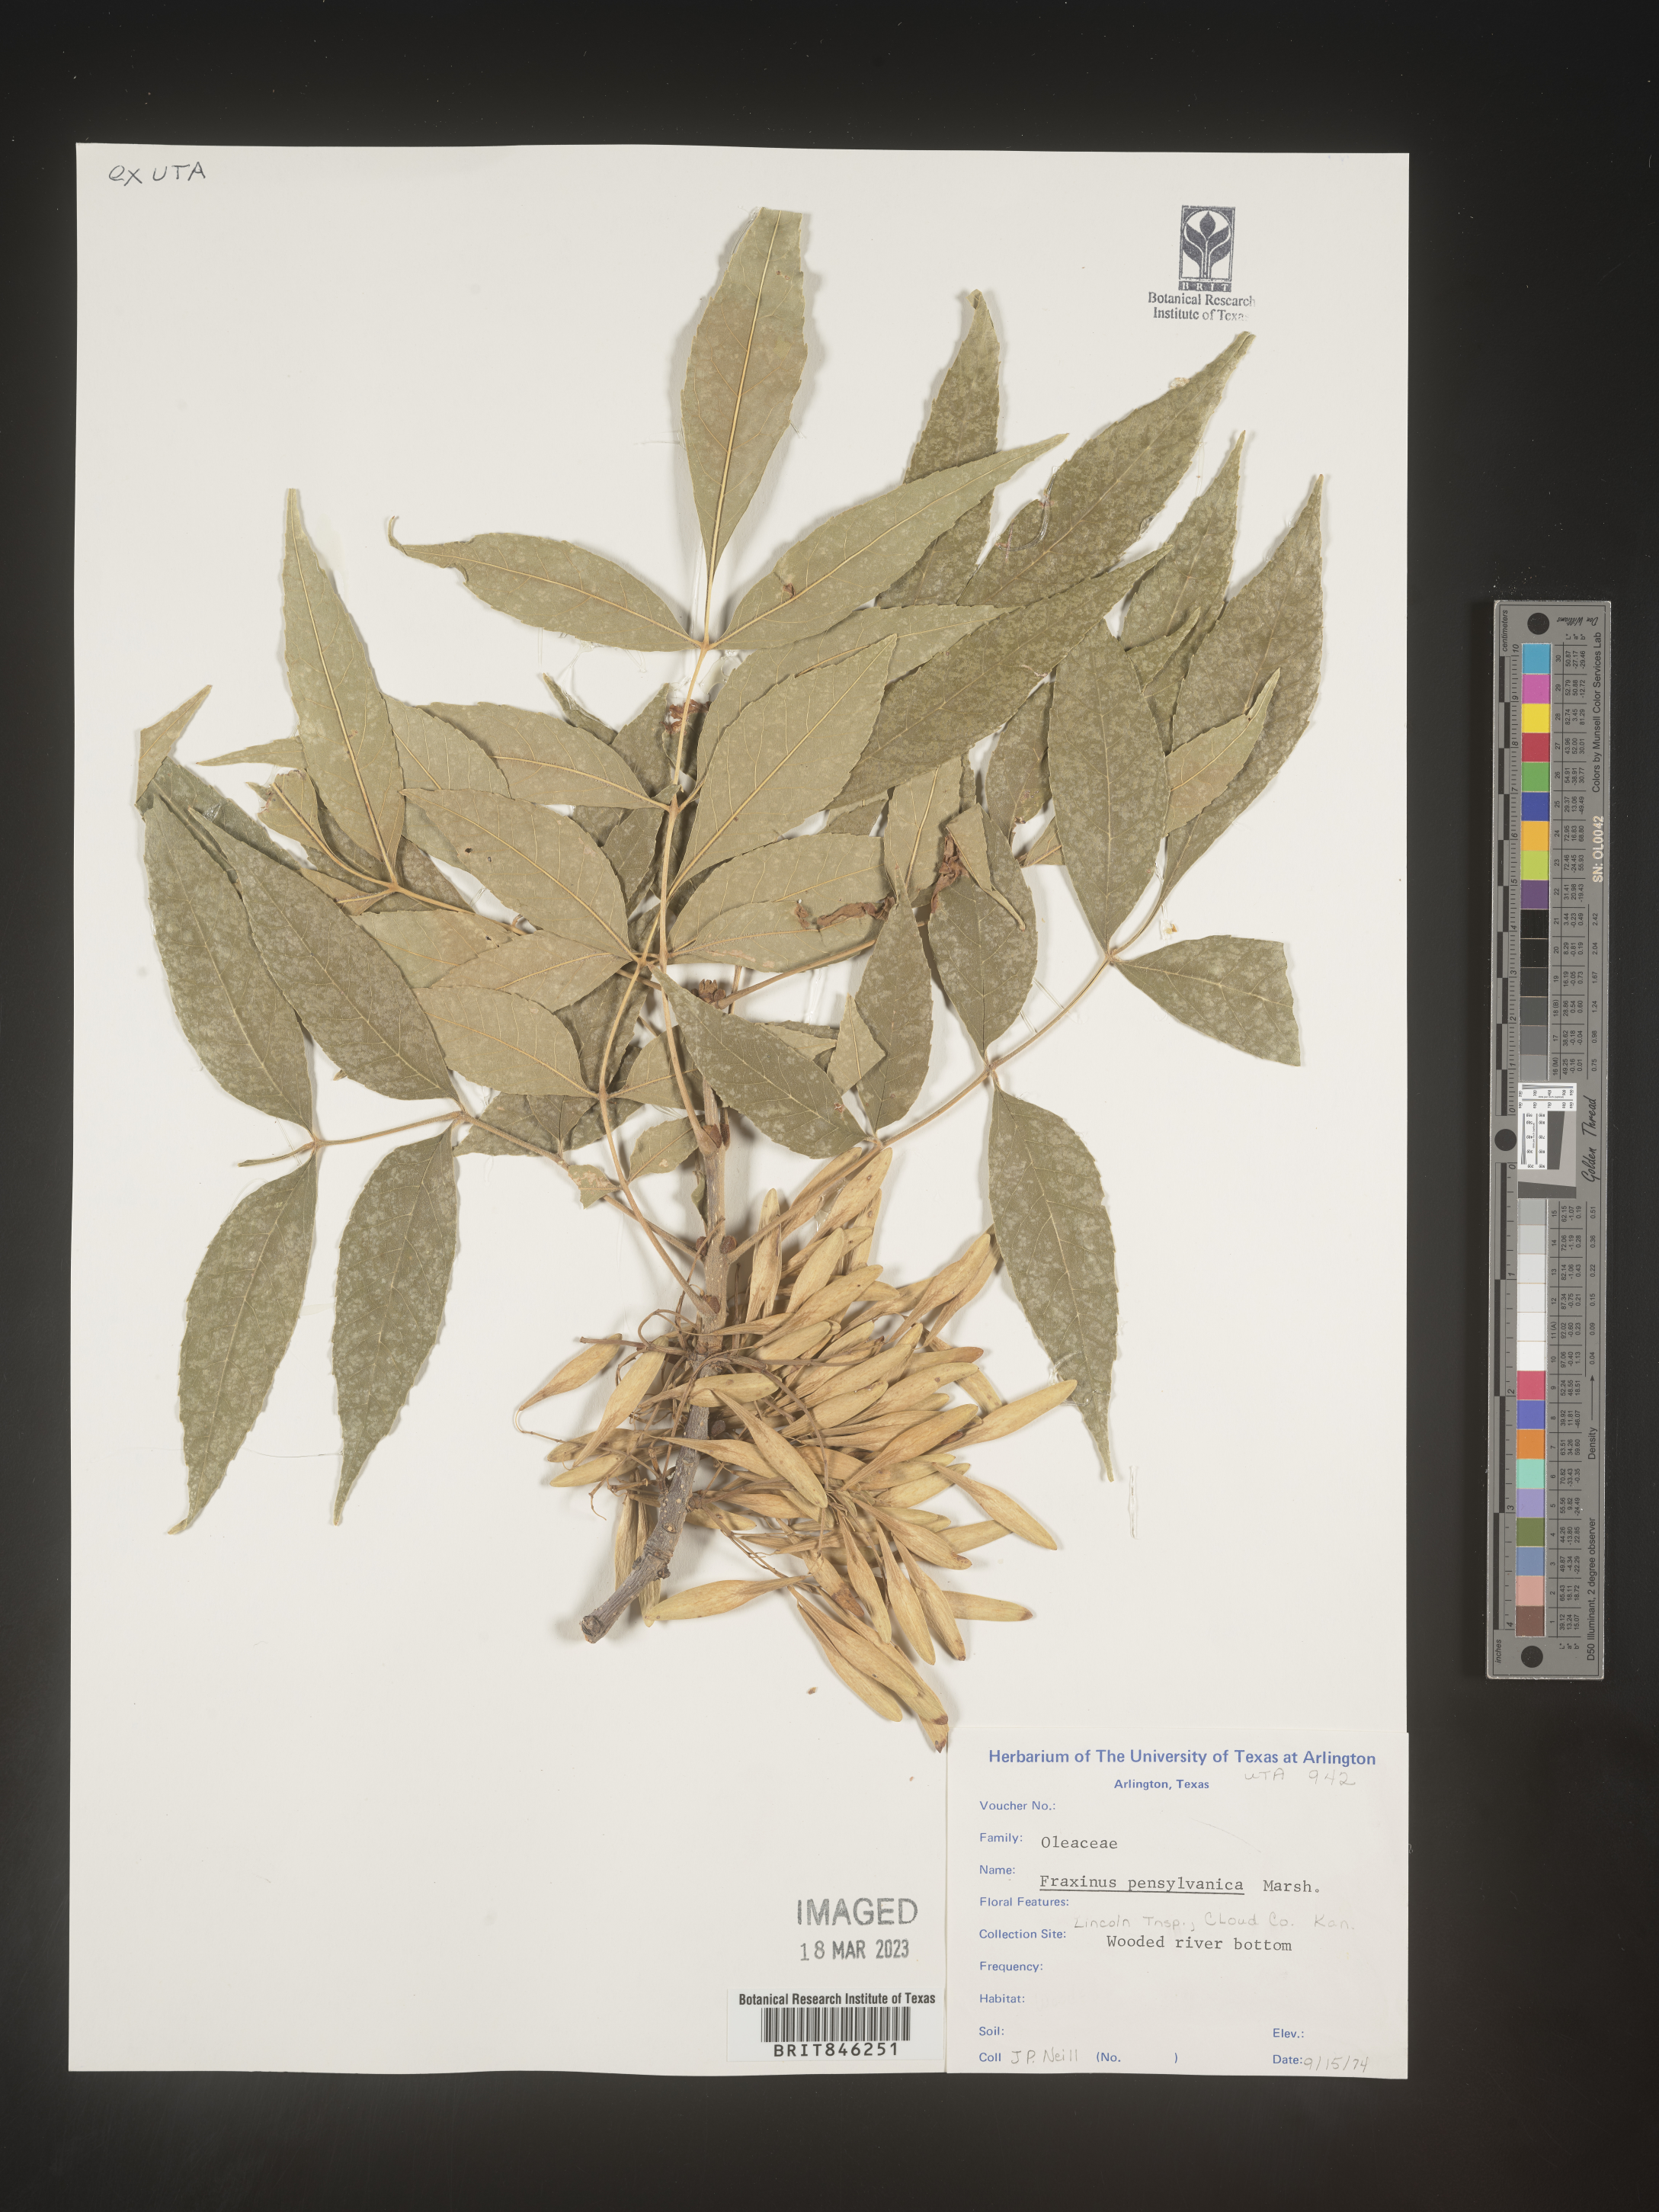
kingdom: Plantae
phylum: Tracheophyta
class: Magnoliopsida
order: Lamiales
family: Oleaceae
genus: Fraxinus
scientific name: Fraxinus pennsylvanica
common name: Green ash
